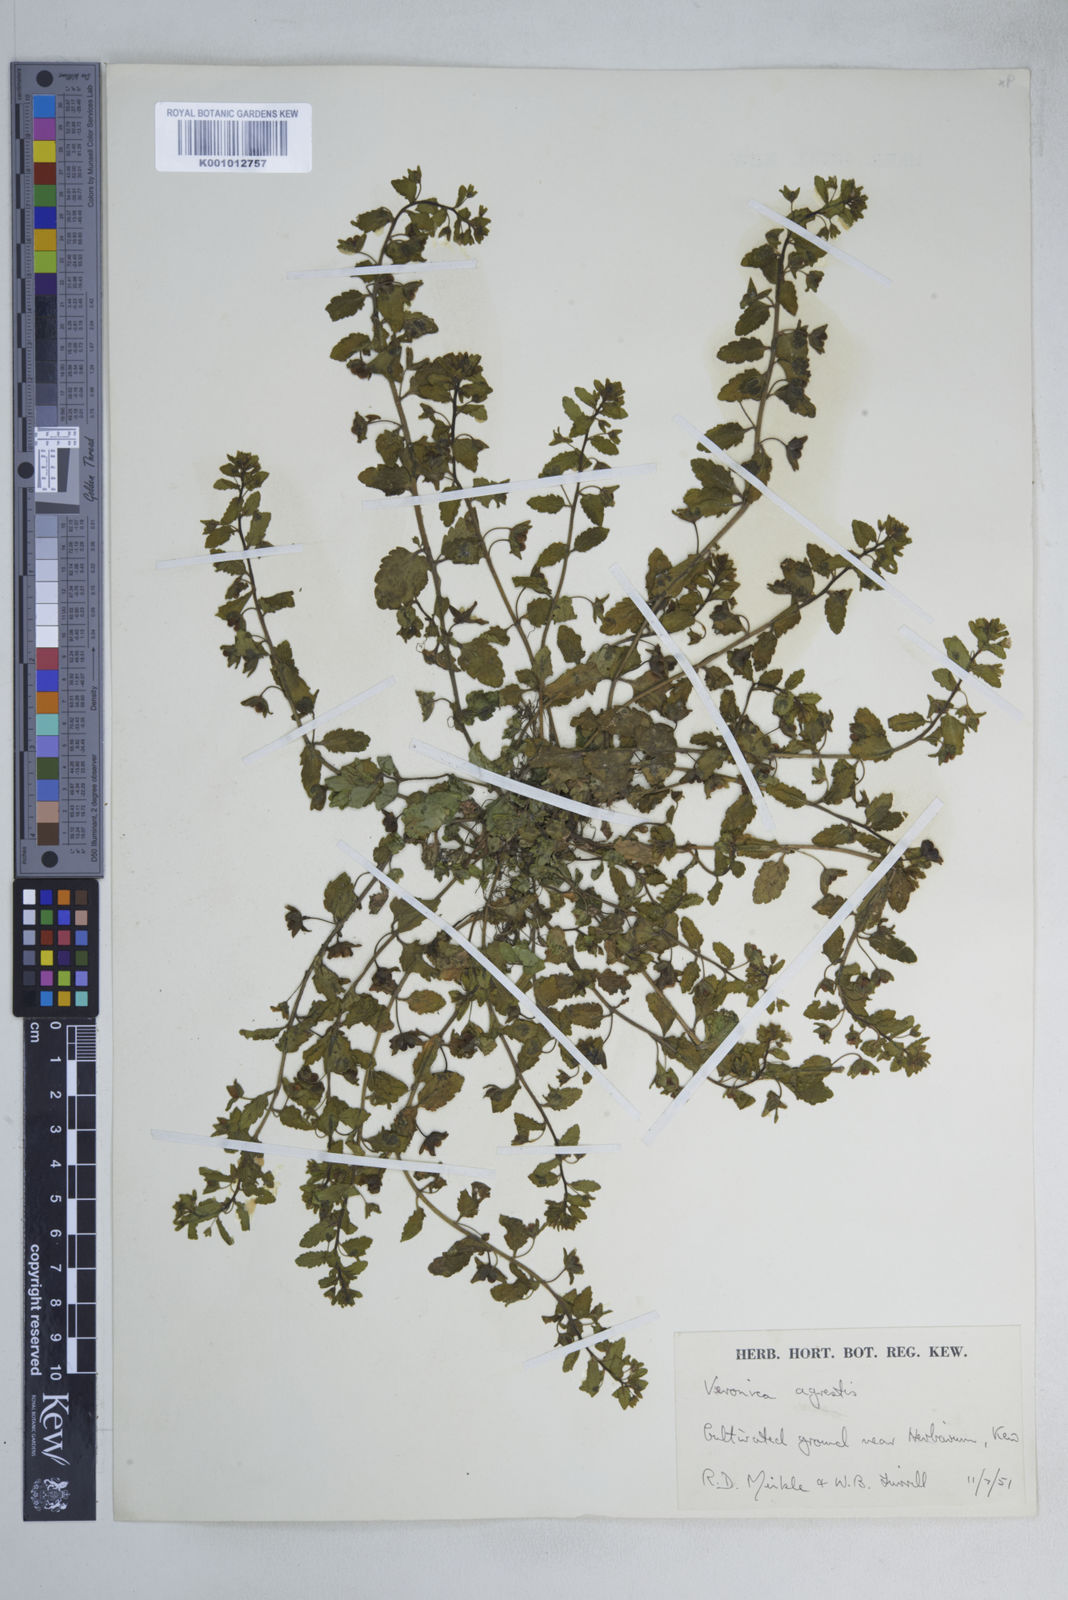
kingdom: Plantae
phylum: Tracheophyta
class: Magnoliopsida
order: Lamiales
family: Plantaginaceae
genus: Veronica
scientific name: Veronica agrestis
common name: Green field-speedwell
